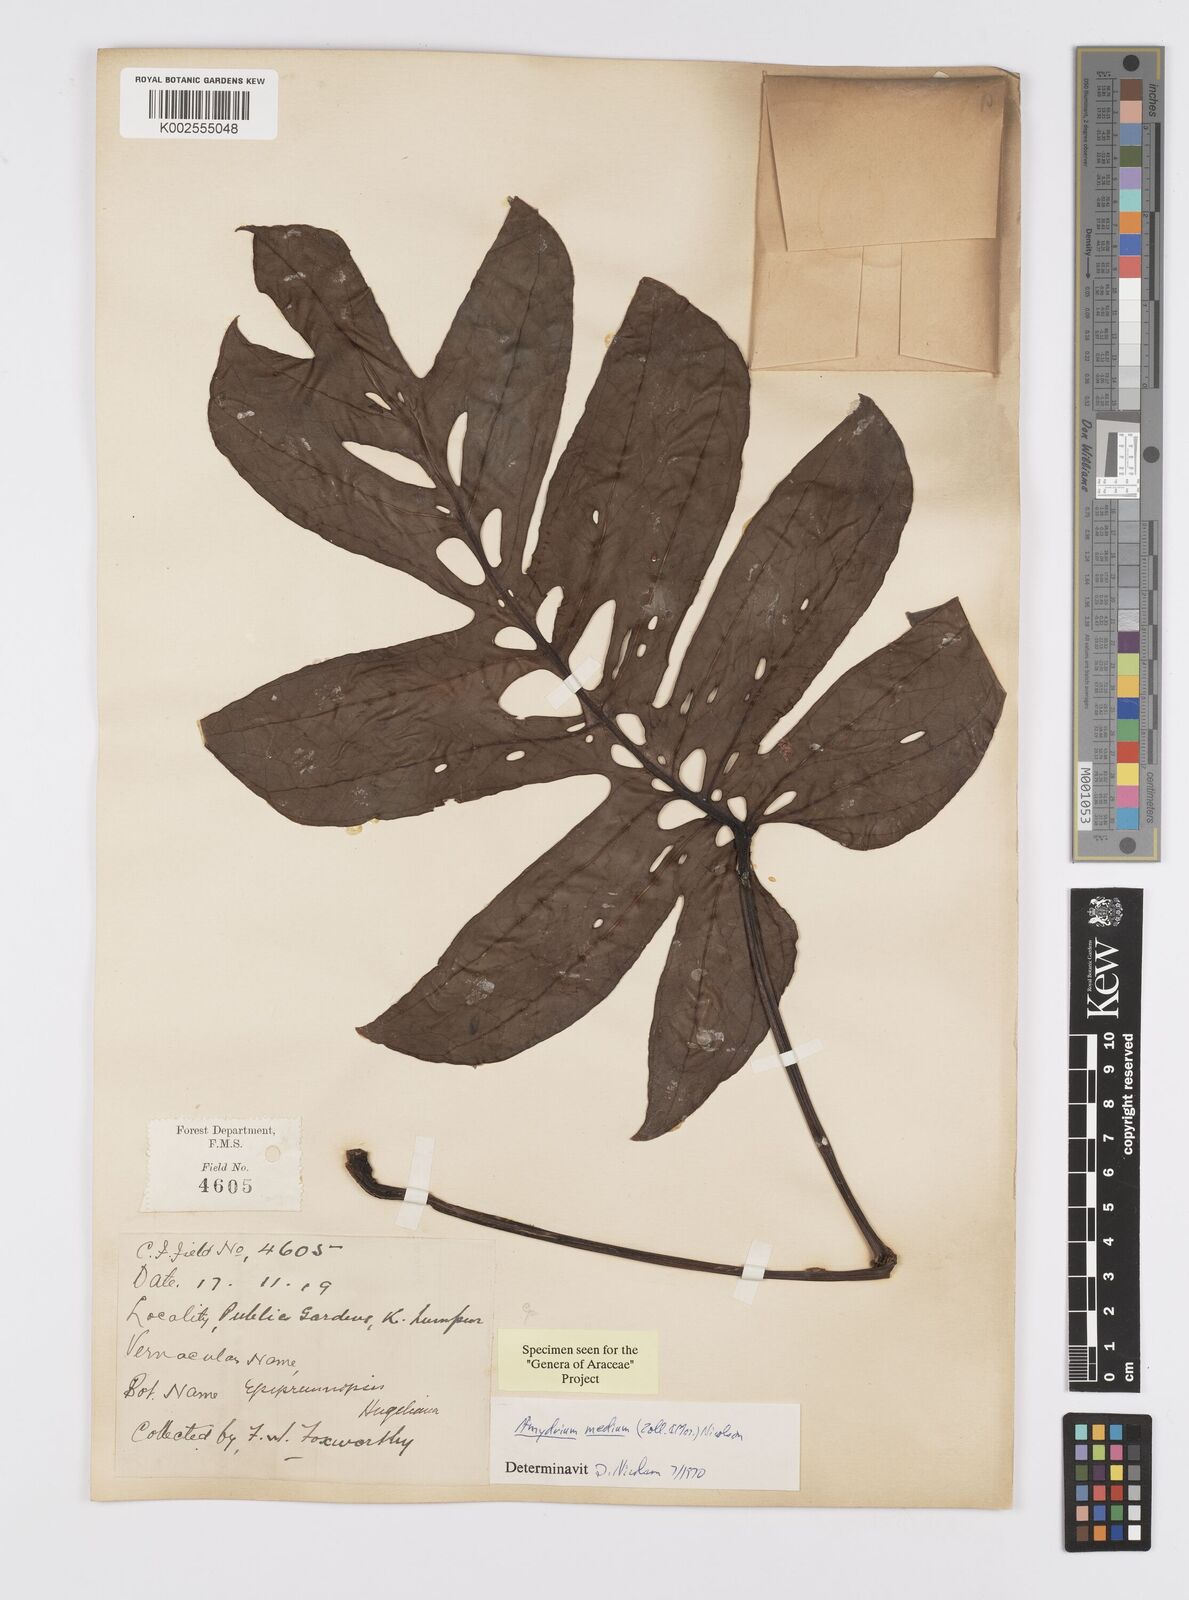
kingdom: Plantae
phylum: Tracheophyta
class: Liliopsida
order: Alismatales
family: Araceae
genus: Amydrium
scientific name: Amydrium
